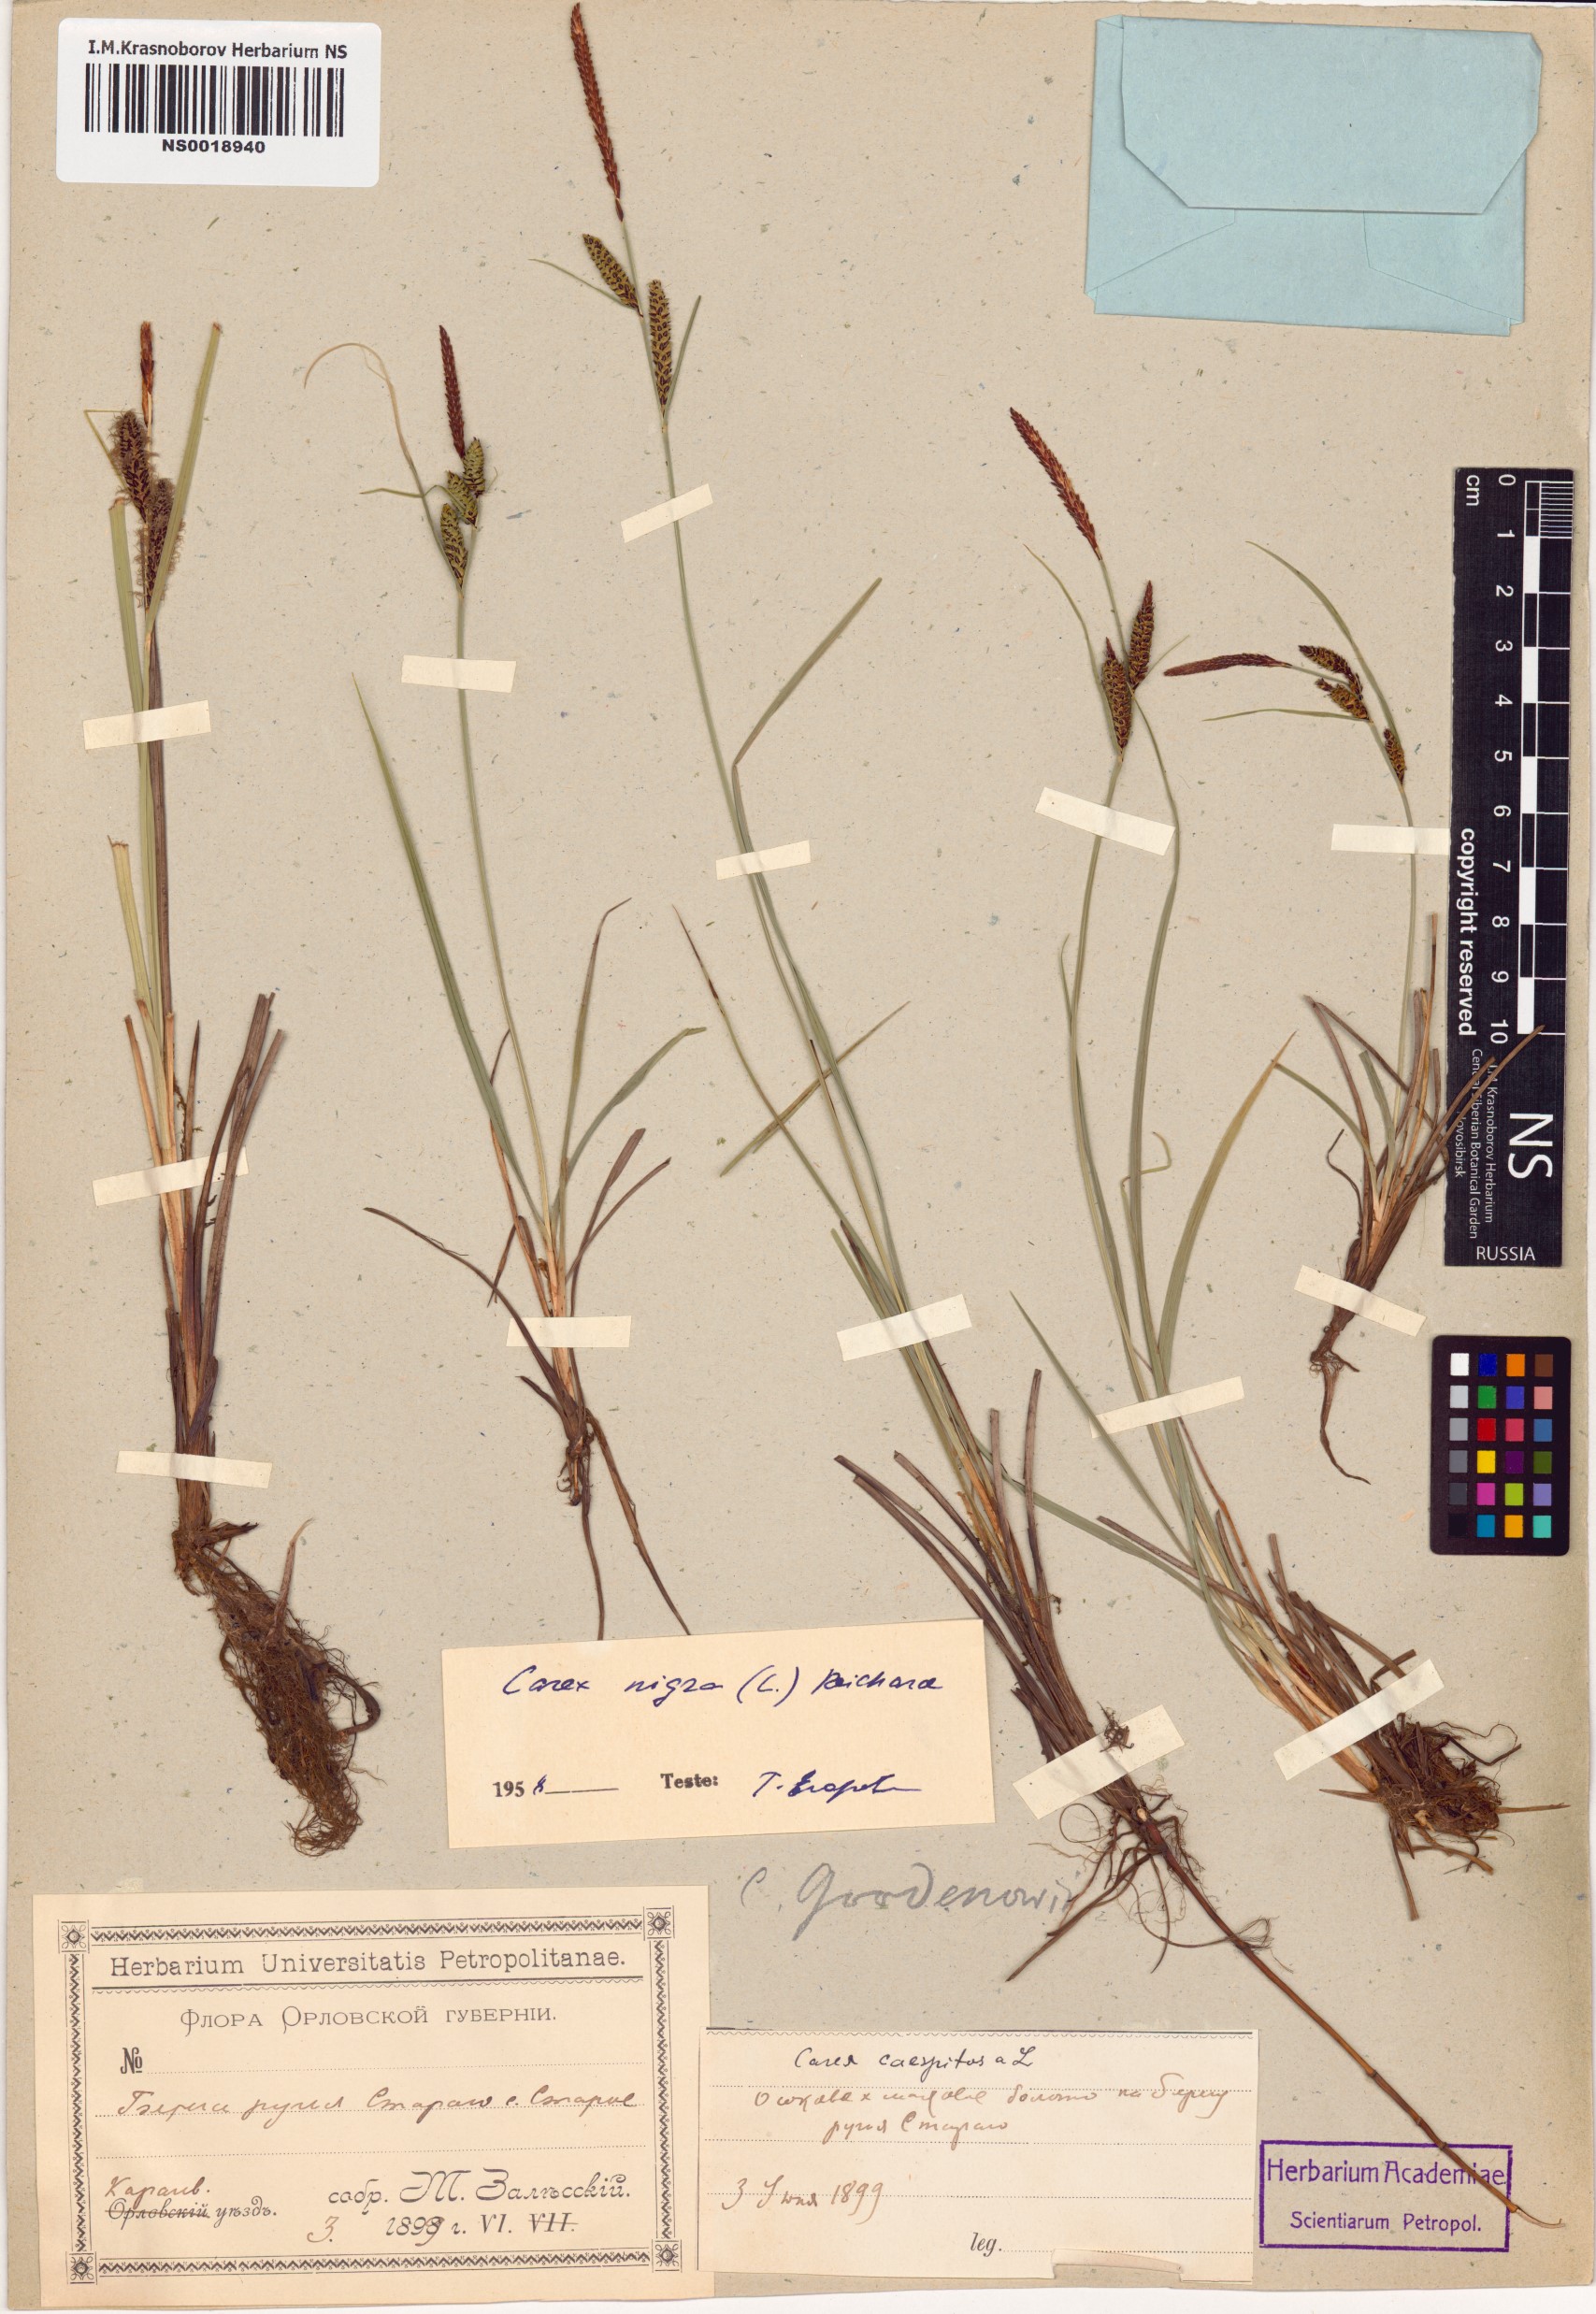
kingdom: Plantae
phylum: Tracheophyta
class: Liliopsida
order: Poales
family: Cyperaceae
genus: Carex
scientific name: Carex nigra
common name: Common sedge
